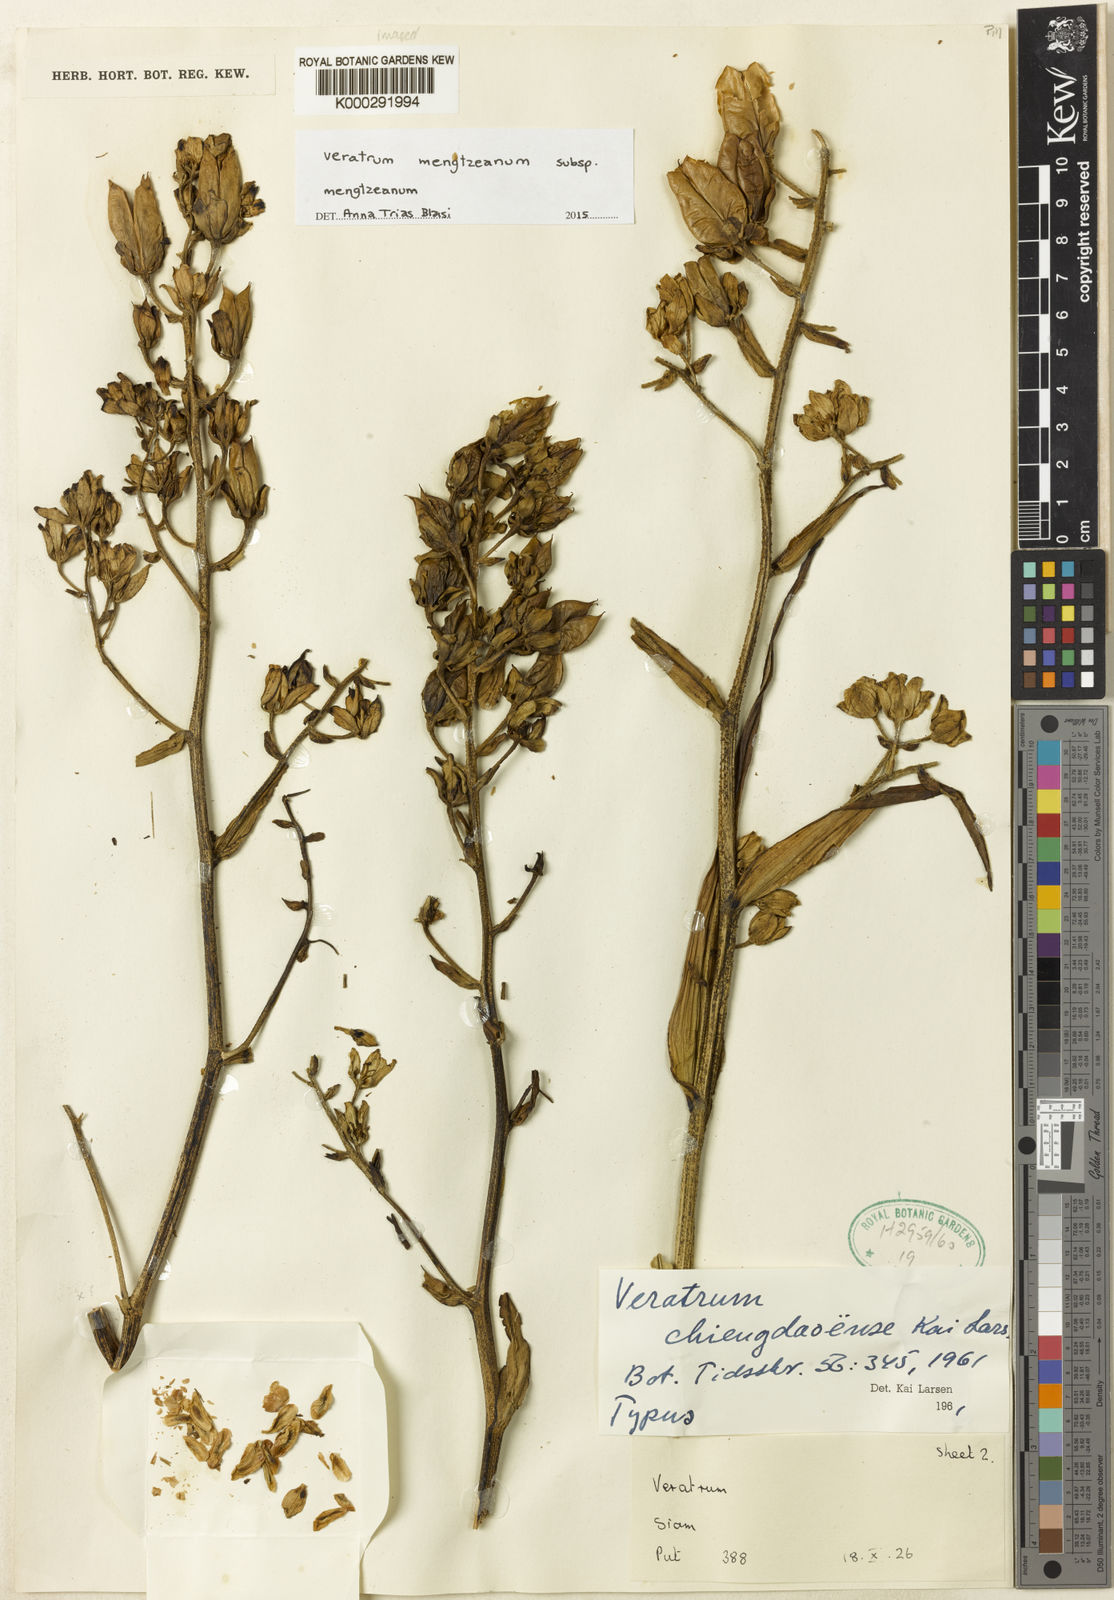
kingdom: Plantae
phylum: Tracheophyta
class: Liliopsida
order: Liliales
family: Melanthiaceae
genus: Veratrum
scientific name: Veratrum mengtzeanum
